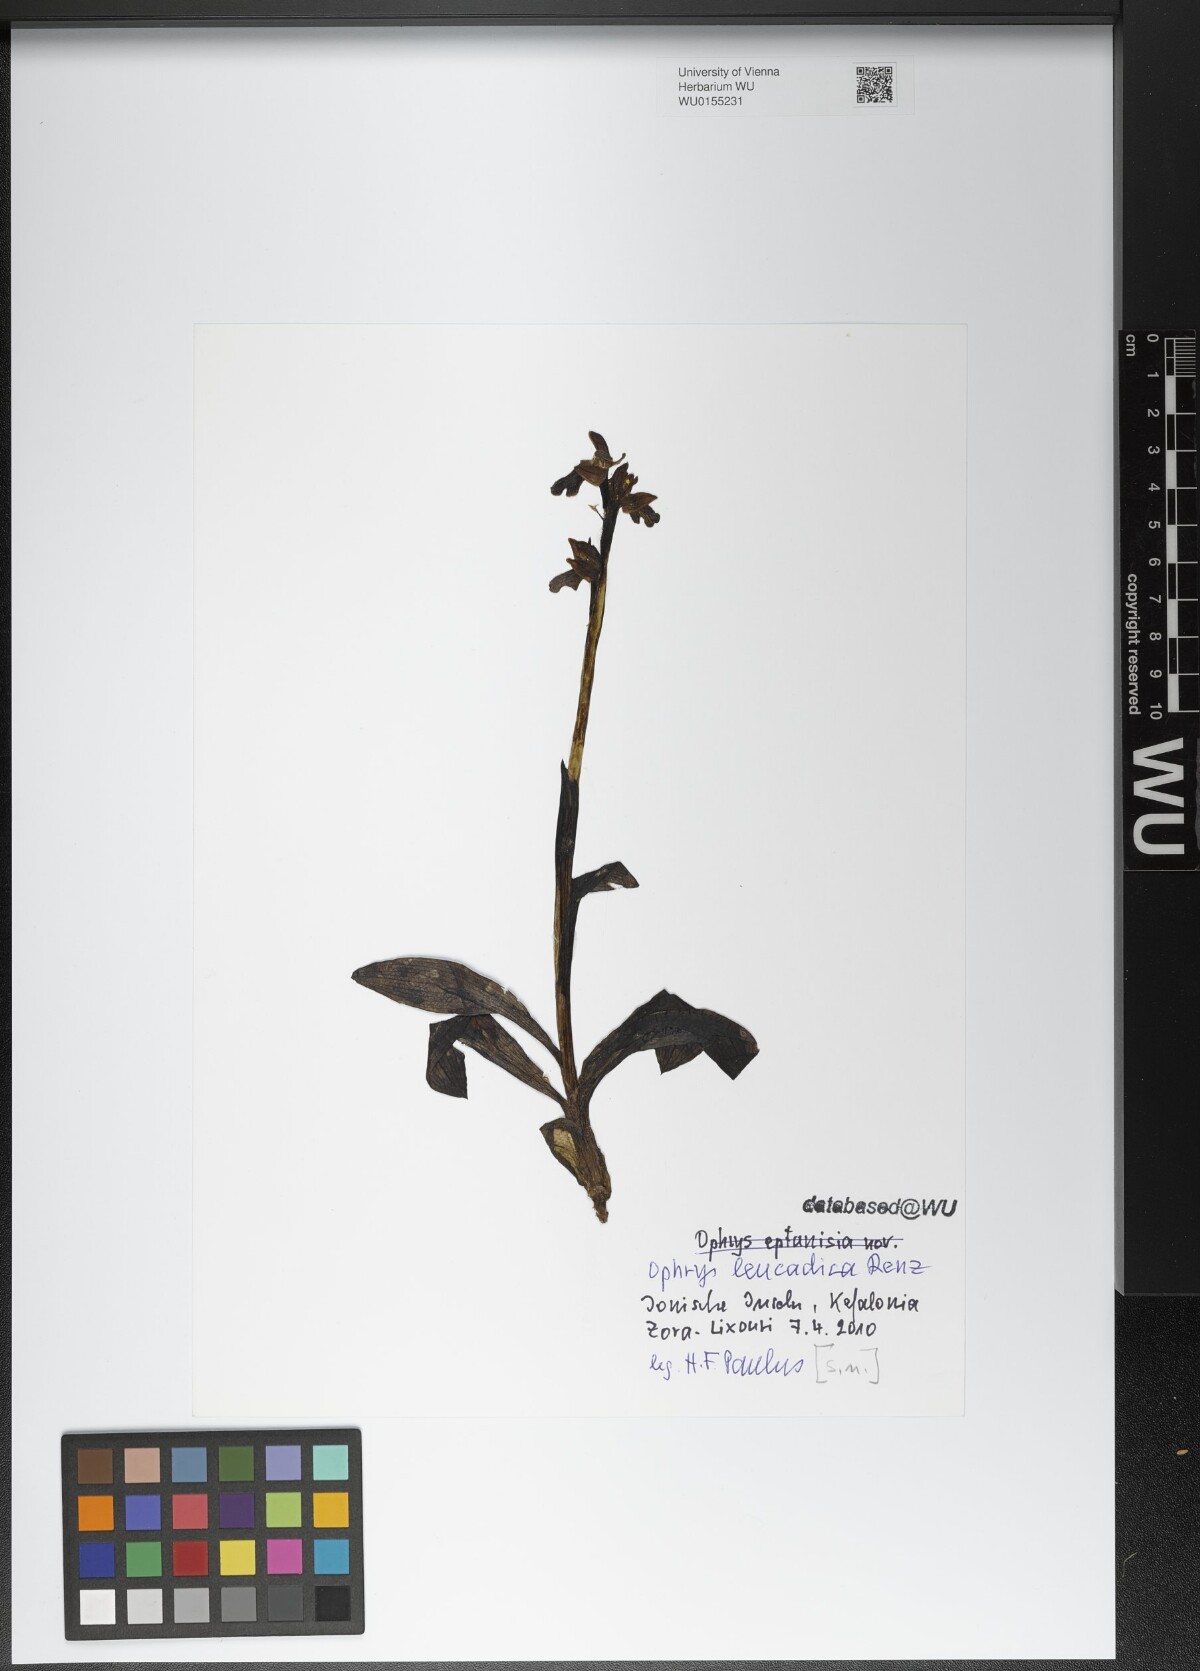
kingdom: Plantae
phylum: Tracheophyta
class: Liliopsida
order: Asparagales
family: Orchidaceae
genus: Ophrys
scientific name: Ophrys fusca
